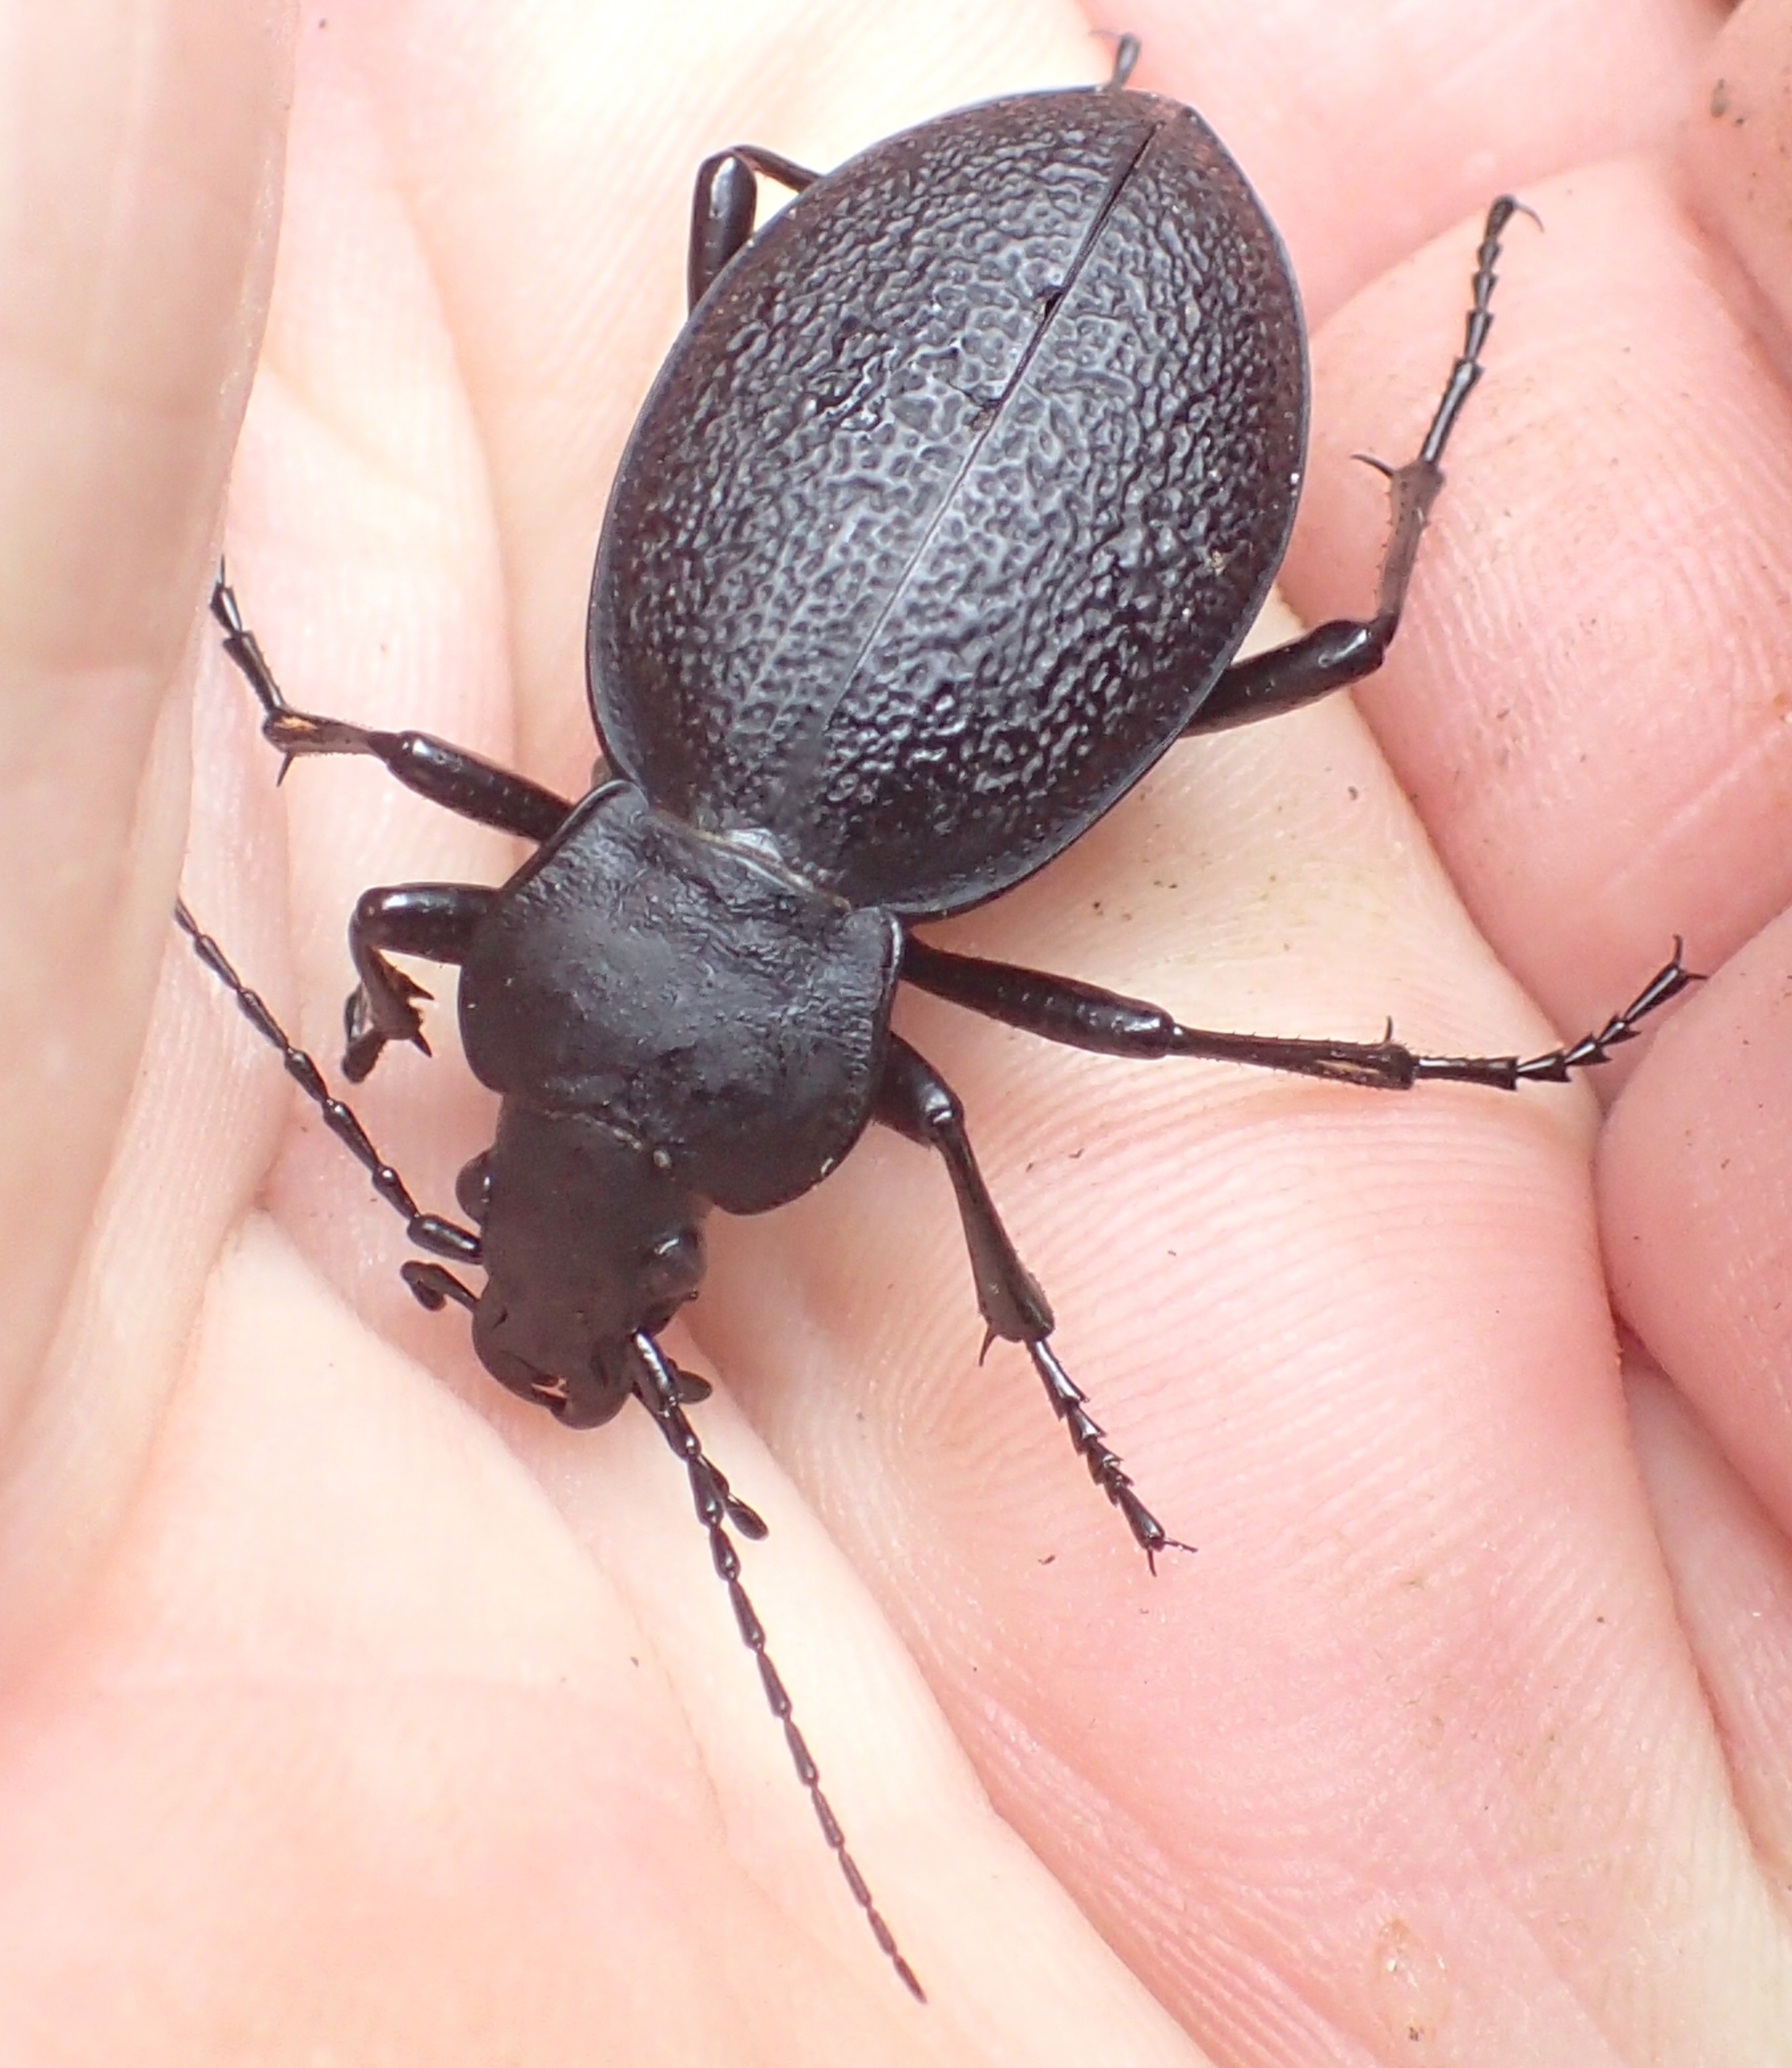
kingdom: Animalia
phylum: Arthropoda
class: Insecta
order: Coleoptera
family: Carabidae
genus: Carabus
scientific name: Carabus coriaceus
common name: Læderløber
